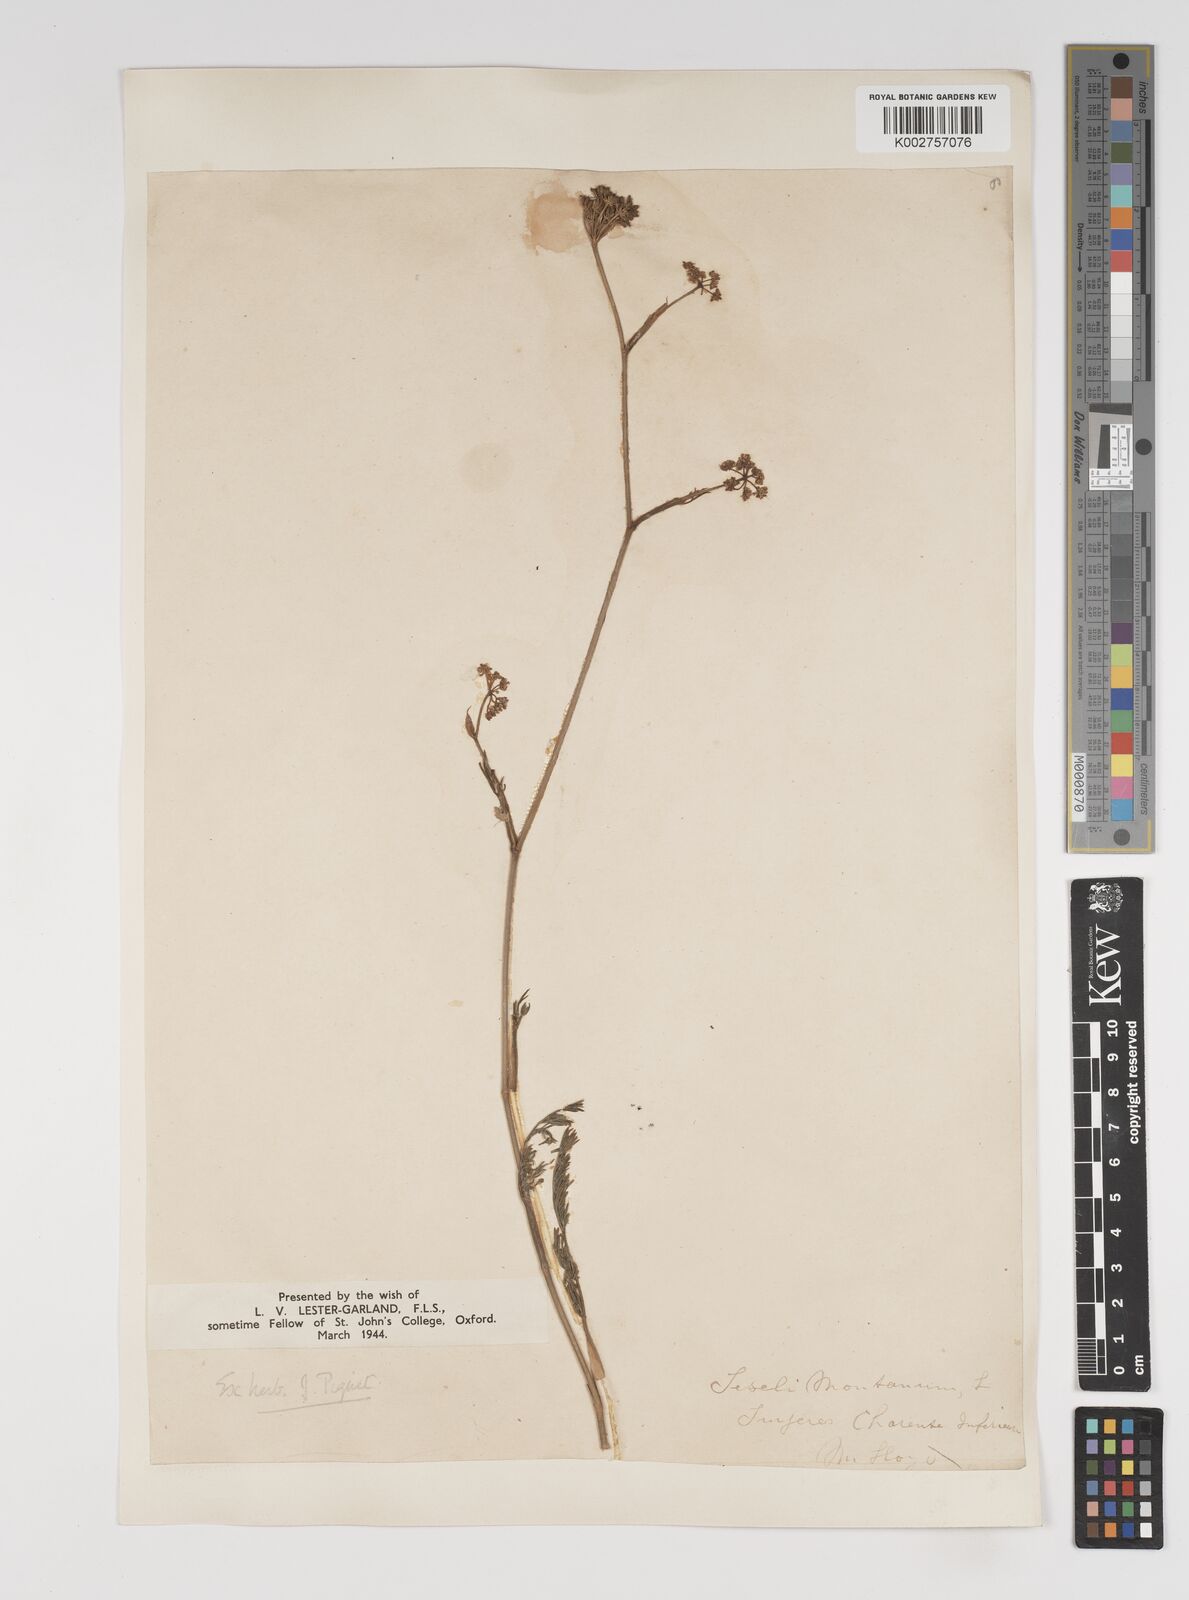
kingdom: Plantae
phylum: Tracheophyta
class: Magnoliopsida
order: Apiales
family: Apiaceae
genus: Seseli
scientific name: Seseli montanum
